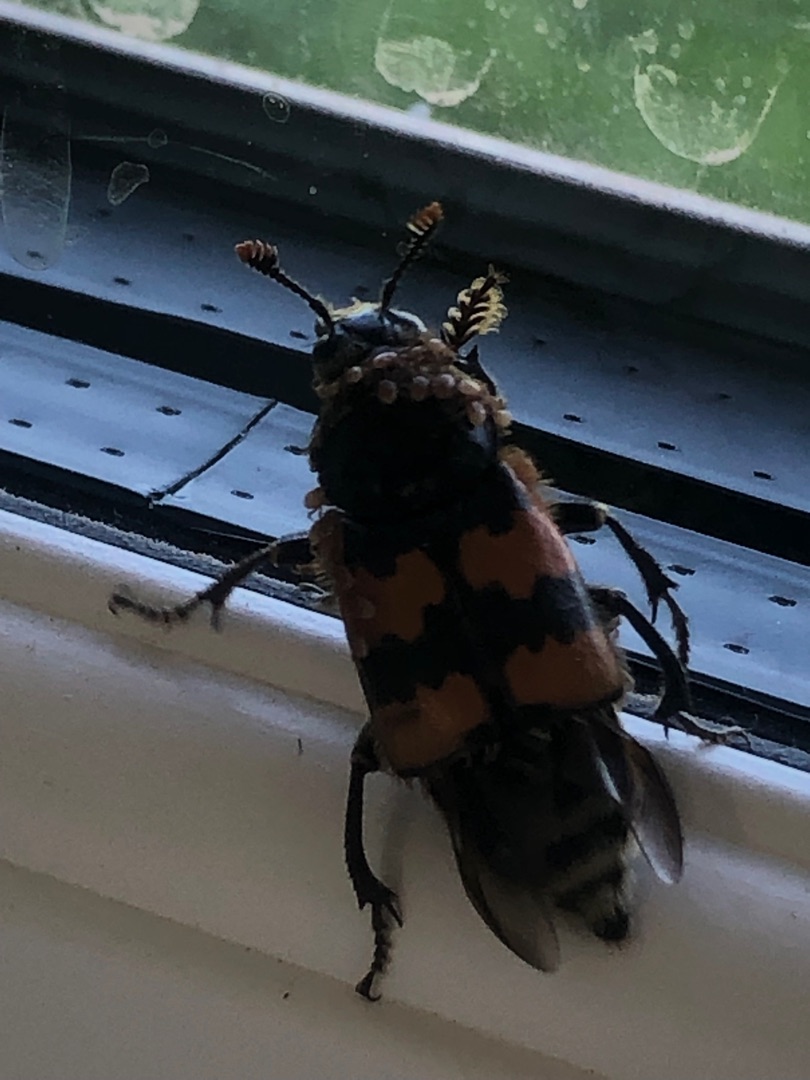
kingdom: Animalia
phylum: Arthropoda
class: Insecta
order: Coleoptera
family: Staphylinidae
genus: Nicrophorus
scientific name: Nicrophorus vespillo
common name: Krumbenet ådselgraver
